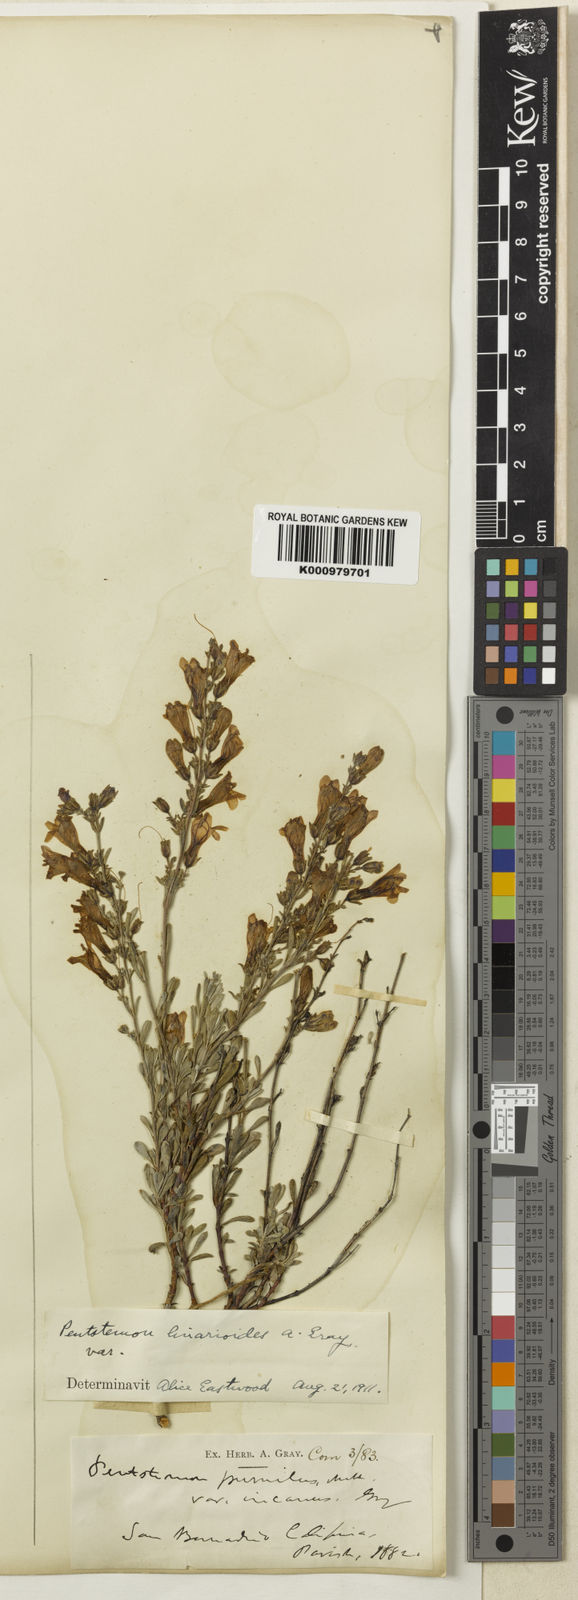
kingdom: Plantae
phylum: Tracheophyta
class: Magnoliopsida
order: Lamiales
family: Plantaginaceae
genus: Penstemon
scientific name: Penstemon linarioides
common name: Siler's penstemon
